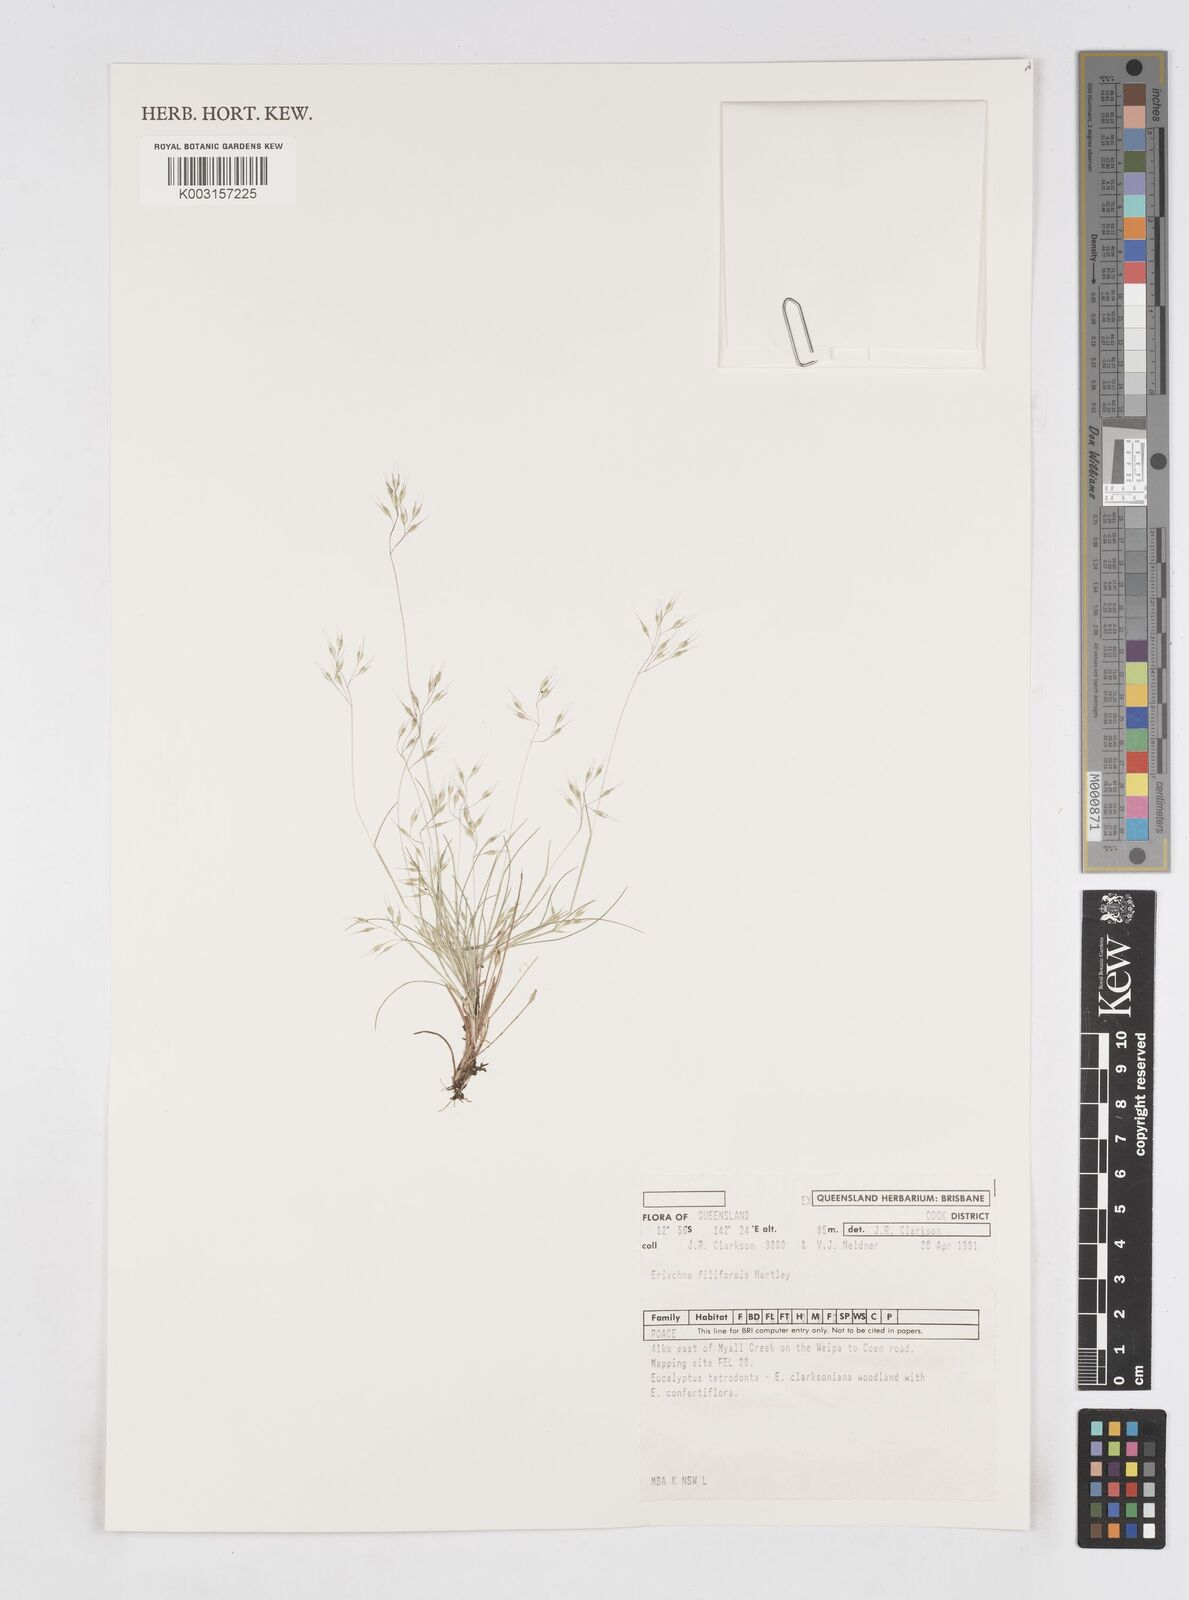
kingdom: Plantae
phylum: Tracheophyta
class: Liliopsida
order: Poales
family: Poaceae
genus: Eriachne
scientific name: Eriachne filiformis
